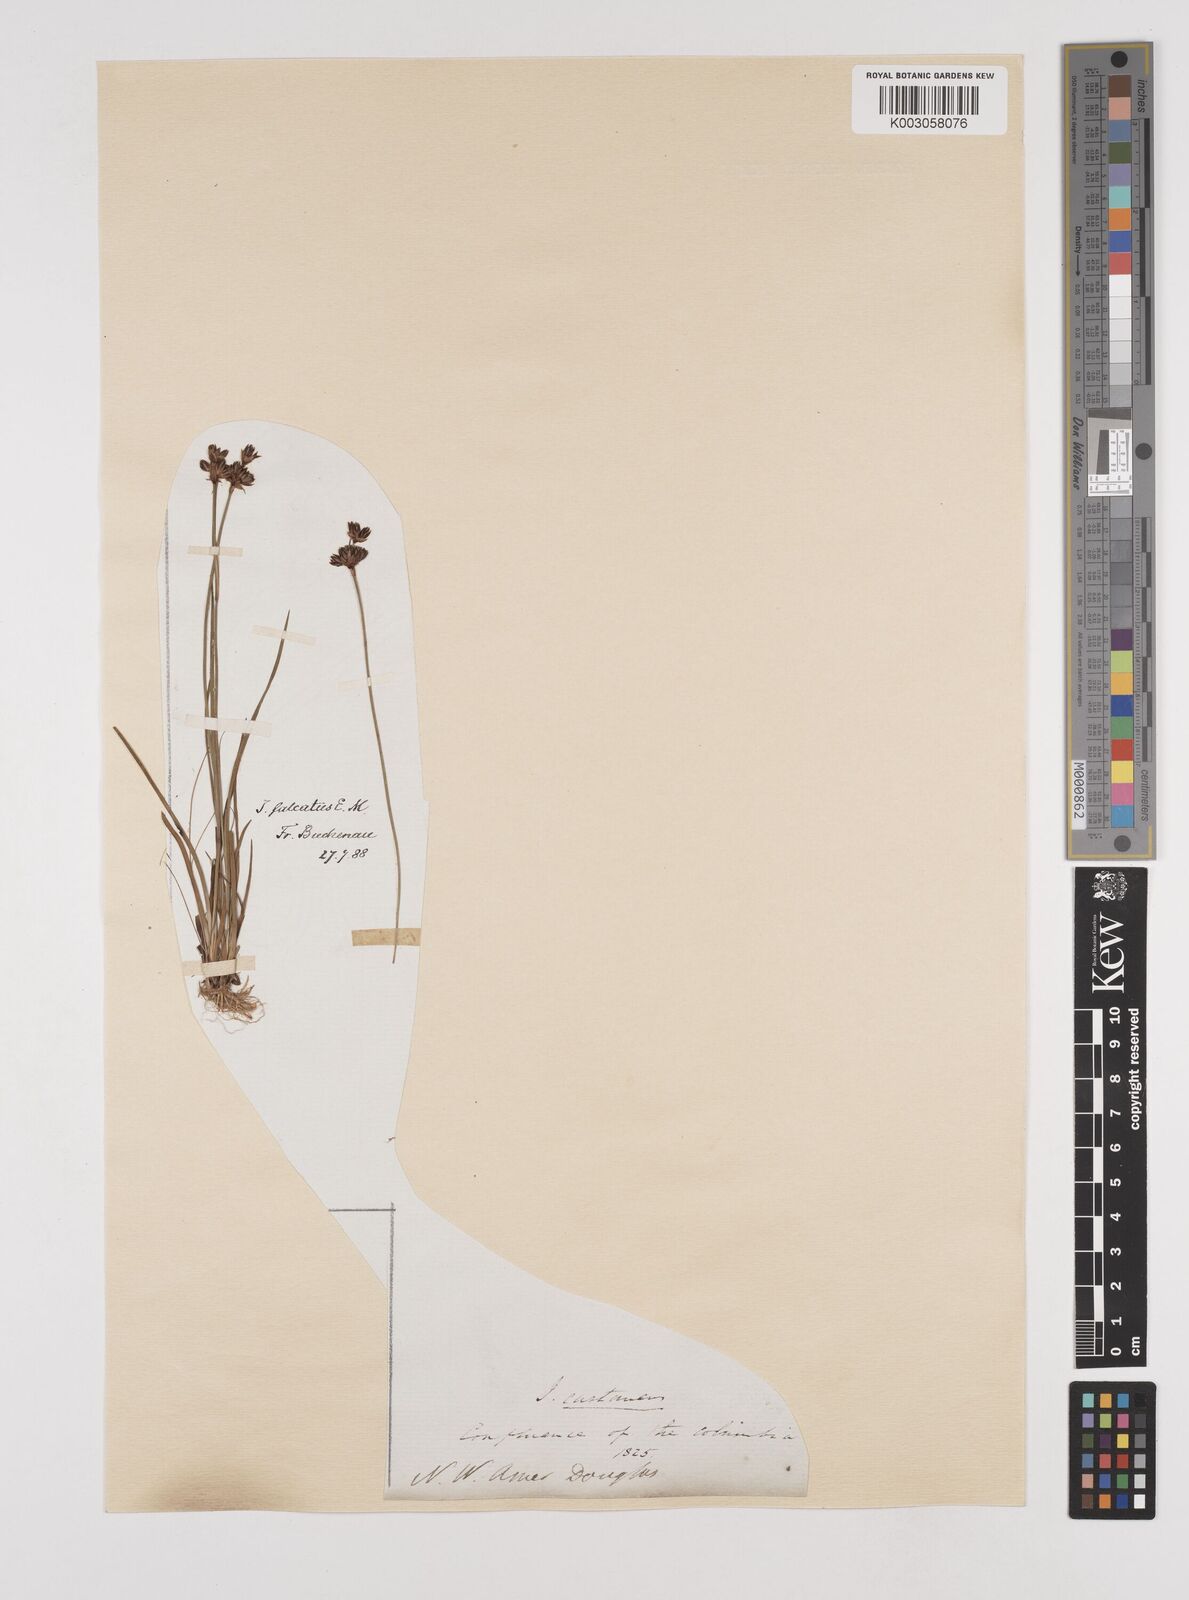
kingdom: Plantae
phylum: Tracheophyta
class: Liliopsida
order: Poales
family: Juncaceae
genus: Juncus
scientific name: Juncus falcatus
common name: Sickle-leaf rush
